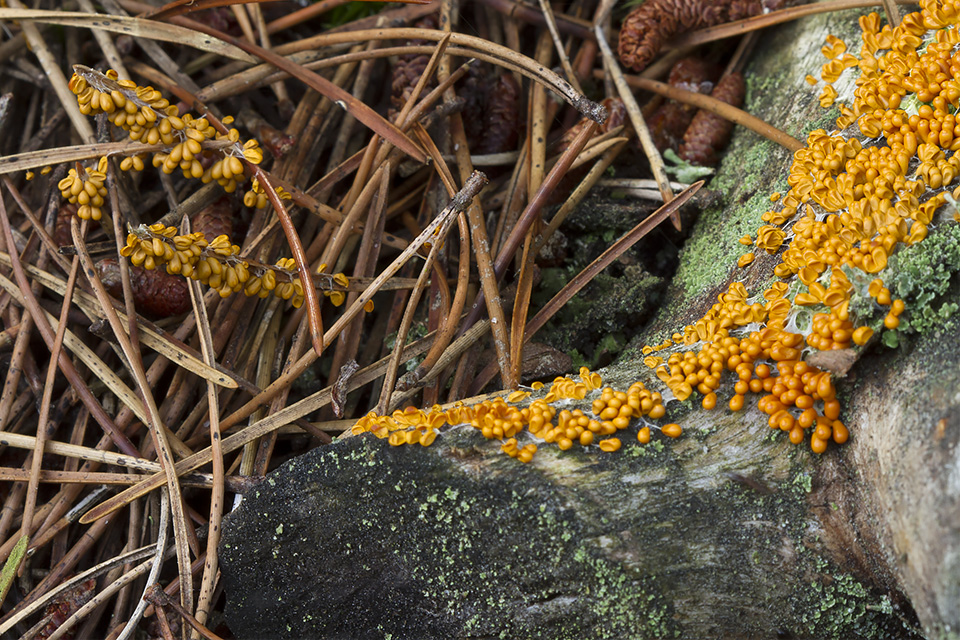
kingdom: Protozoa
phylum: Mycetozoa
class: Myxomycetes
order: Physarales
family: Physaraceae
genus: Leocarpus
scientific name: Leocarpus fragilis
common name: poleret glatfrø
